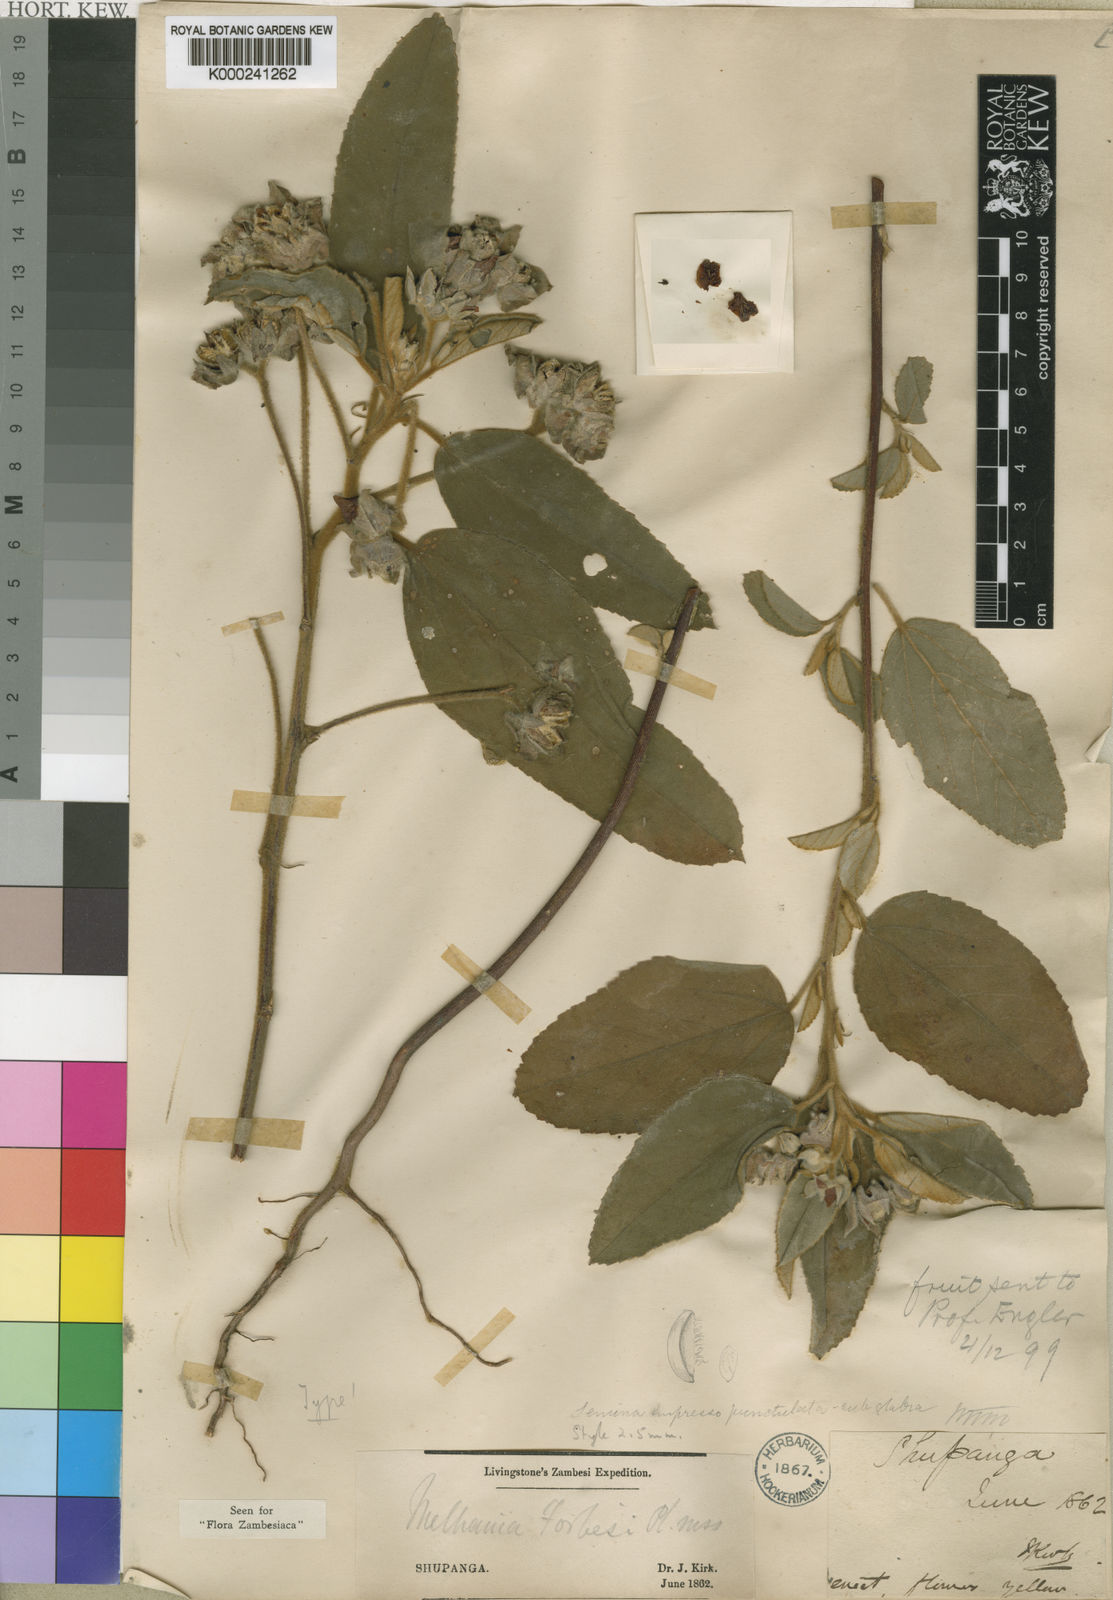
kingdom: Plantae
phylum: Tracheophyta
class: Magnoliopsida
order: Malvales
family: Malvaceae
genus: Melhania
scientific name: Melhania forbesii
